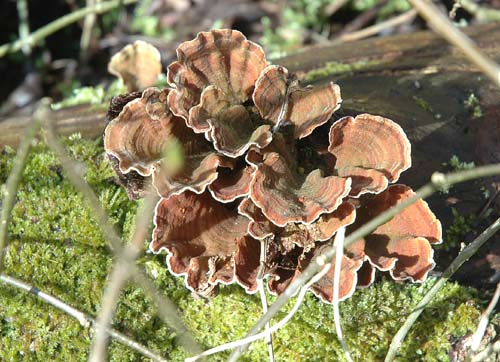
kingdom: Fungi
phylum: Basidiomycota
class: Agaricomycetes
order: Russulales
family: Stereaceae
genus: Stereum
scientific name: Stereum subtomentosum
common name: smuk lædersvamp
